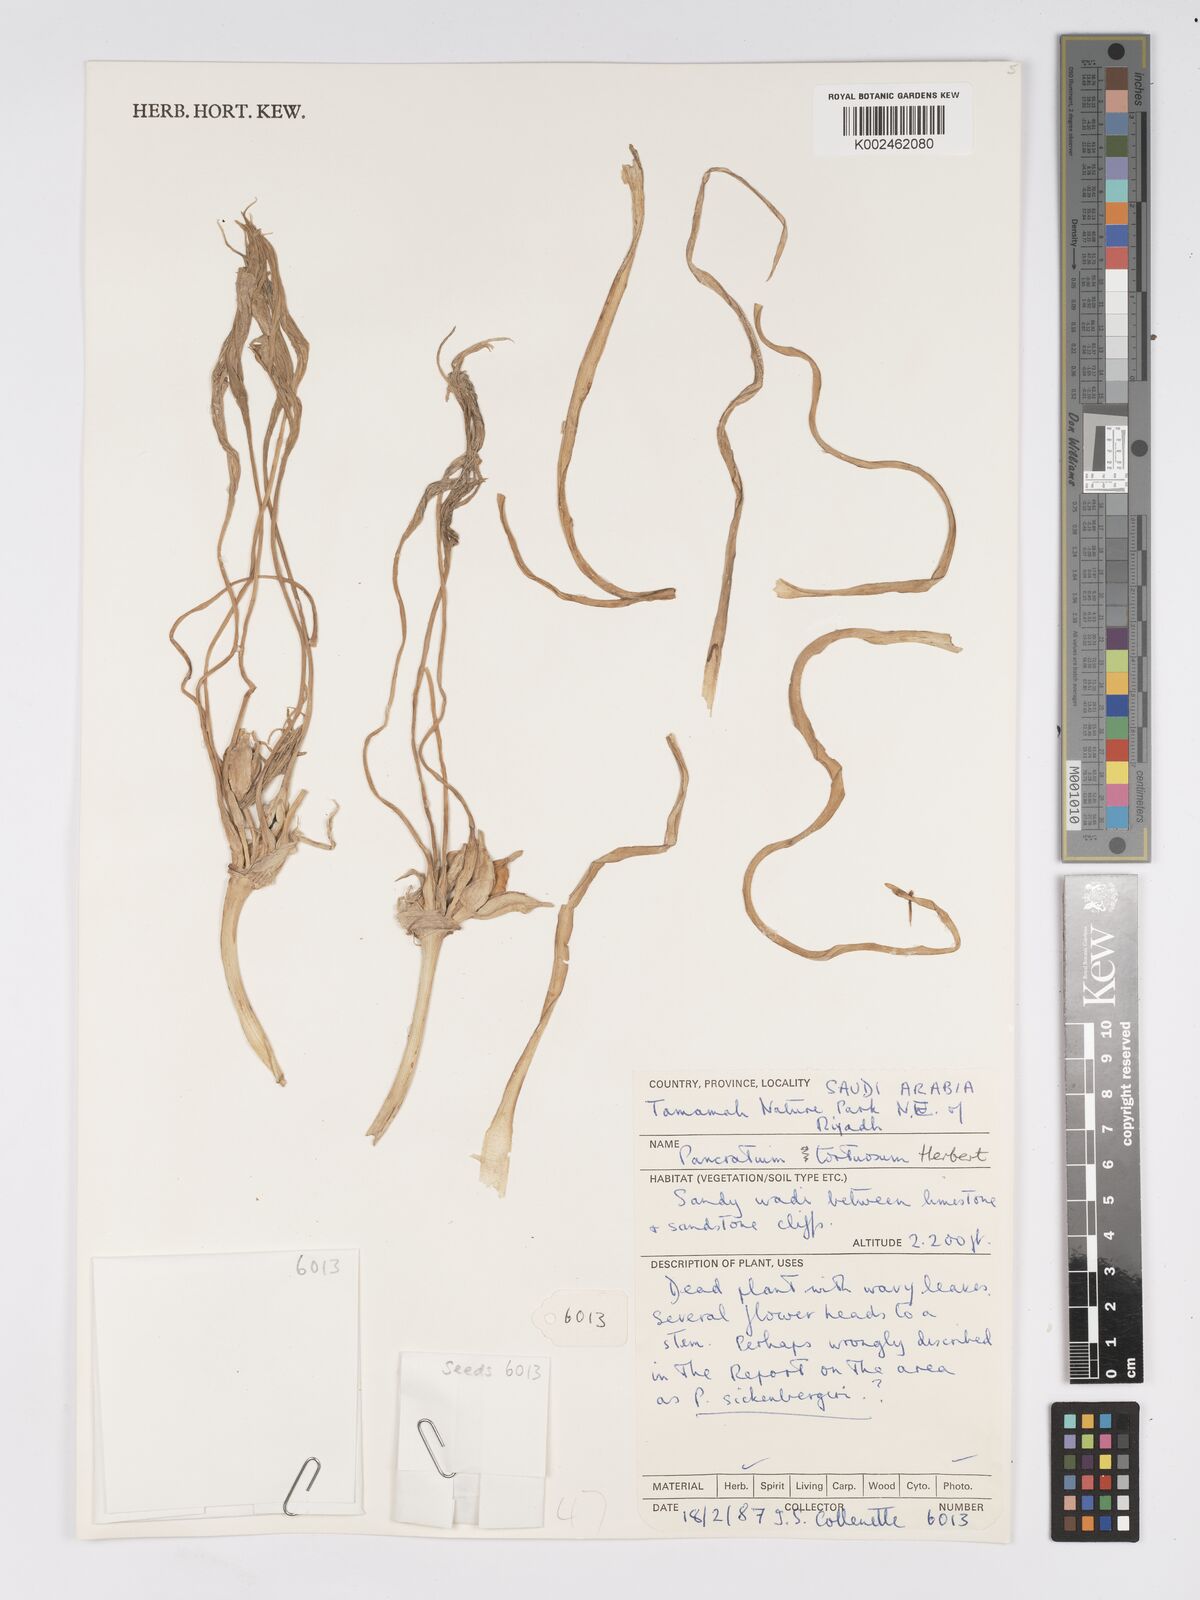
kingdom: Plantae
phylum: Tracheophyta
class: Liliopsida
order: Asparagales
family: Amaryllidaceae
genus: Pancratium
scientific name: Pancratium tortuosum
